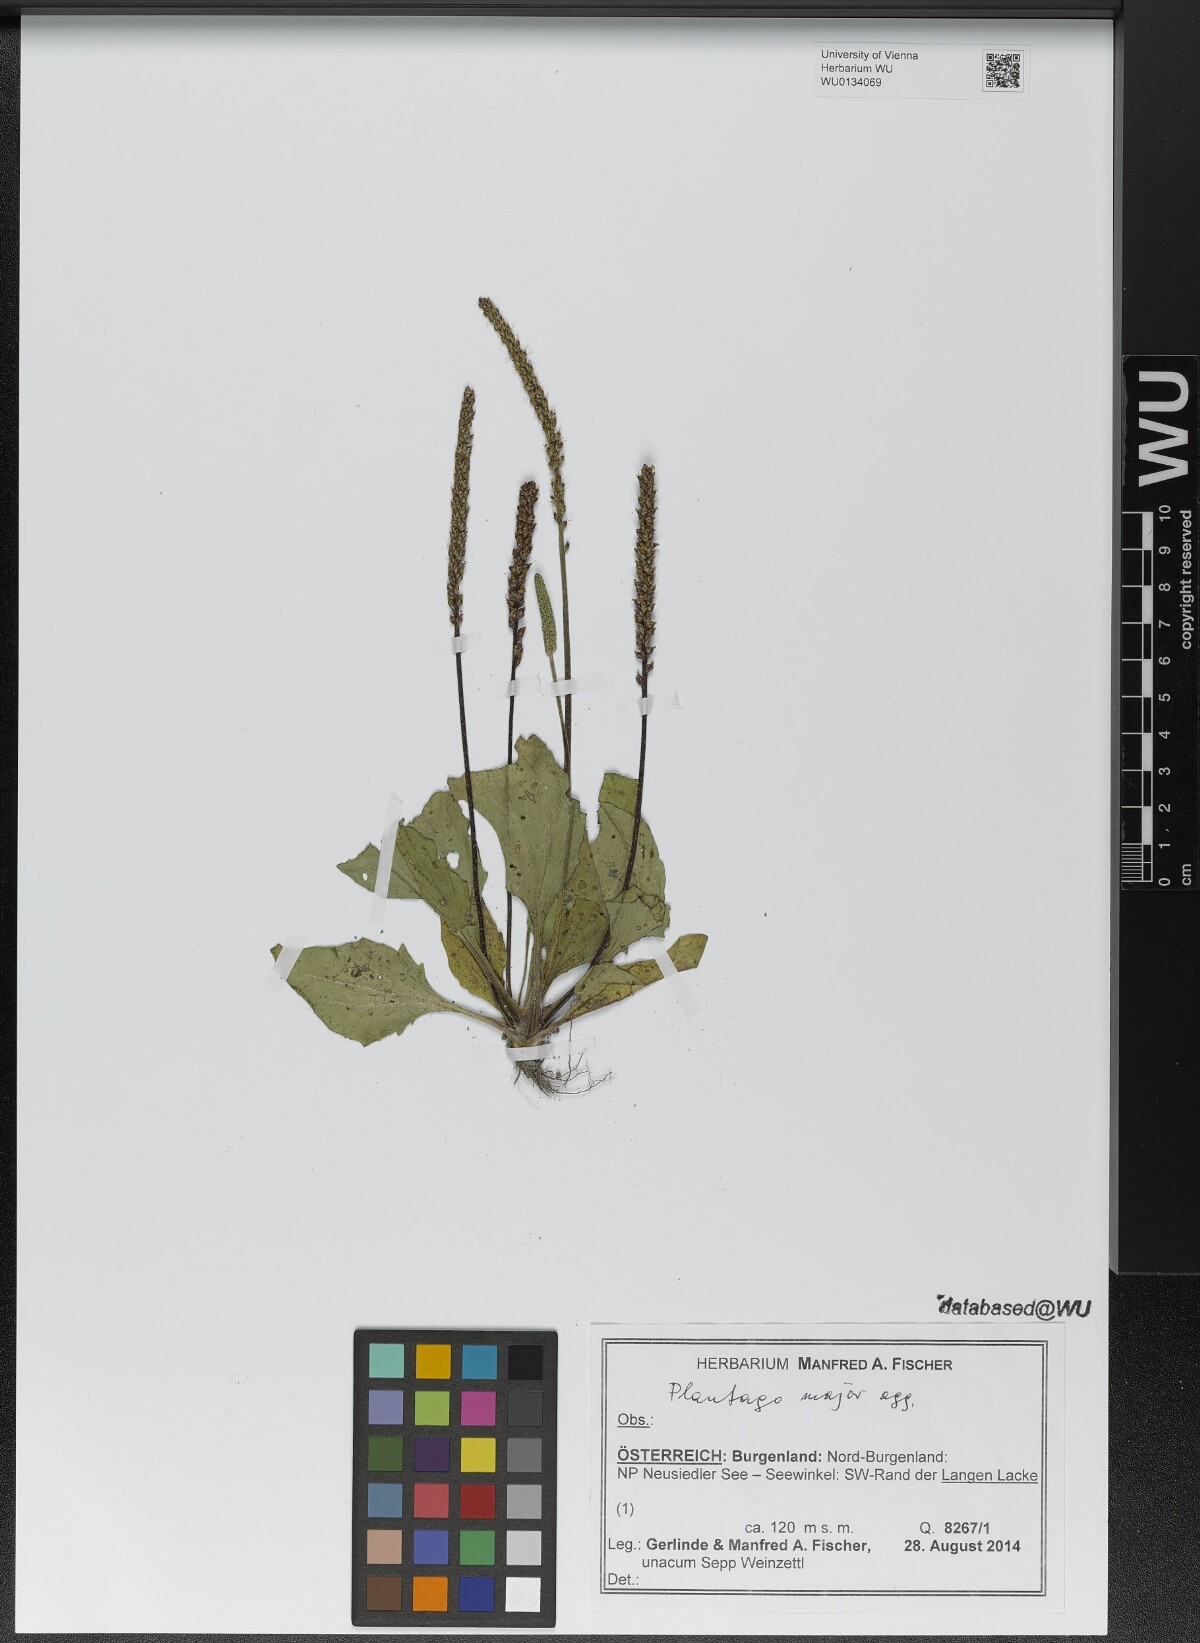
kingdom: Plantae
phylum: Tracheophyta
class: Magnoliopsida
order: Lamiales
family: Plantaginaceae
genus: Plantago
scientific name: Plantago major
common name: Common plantain
